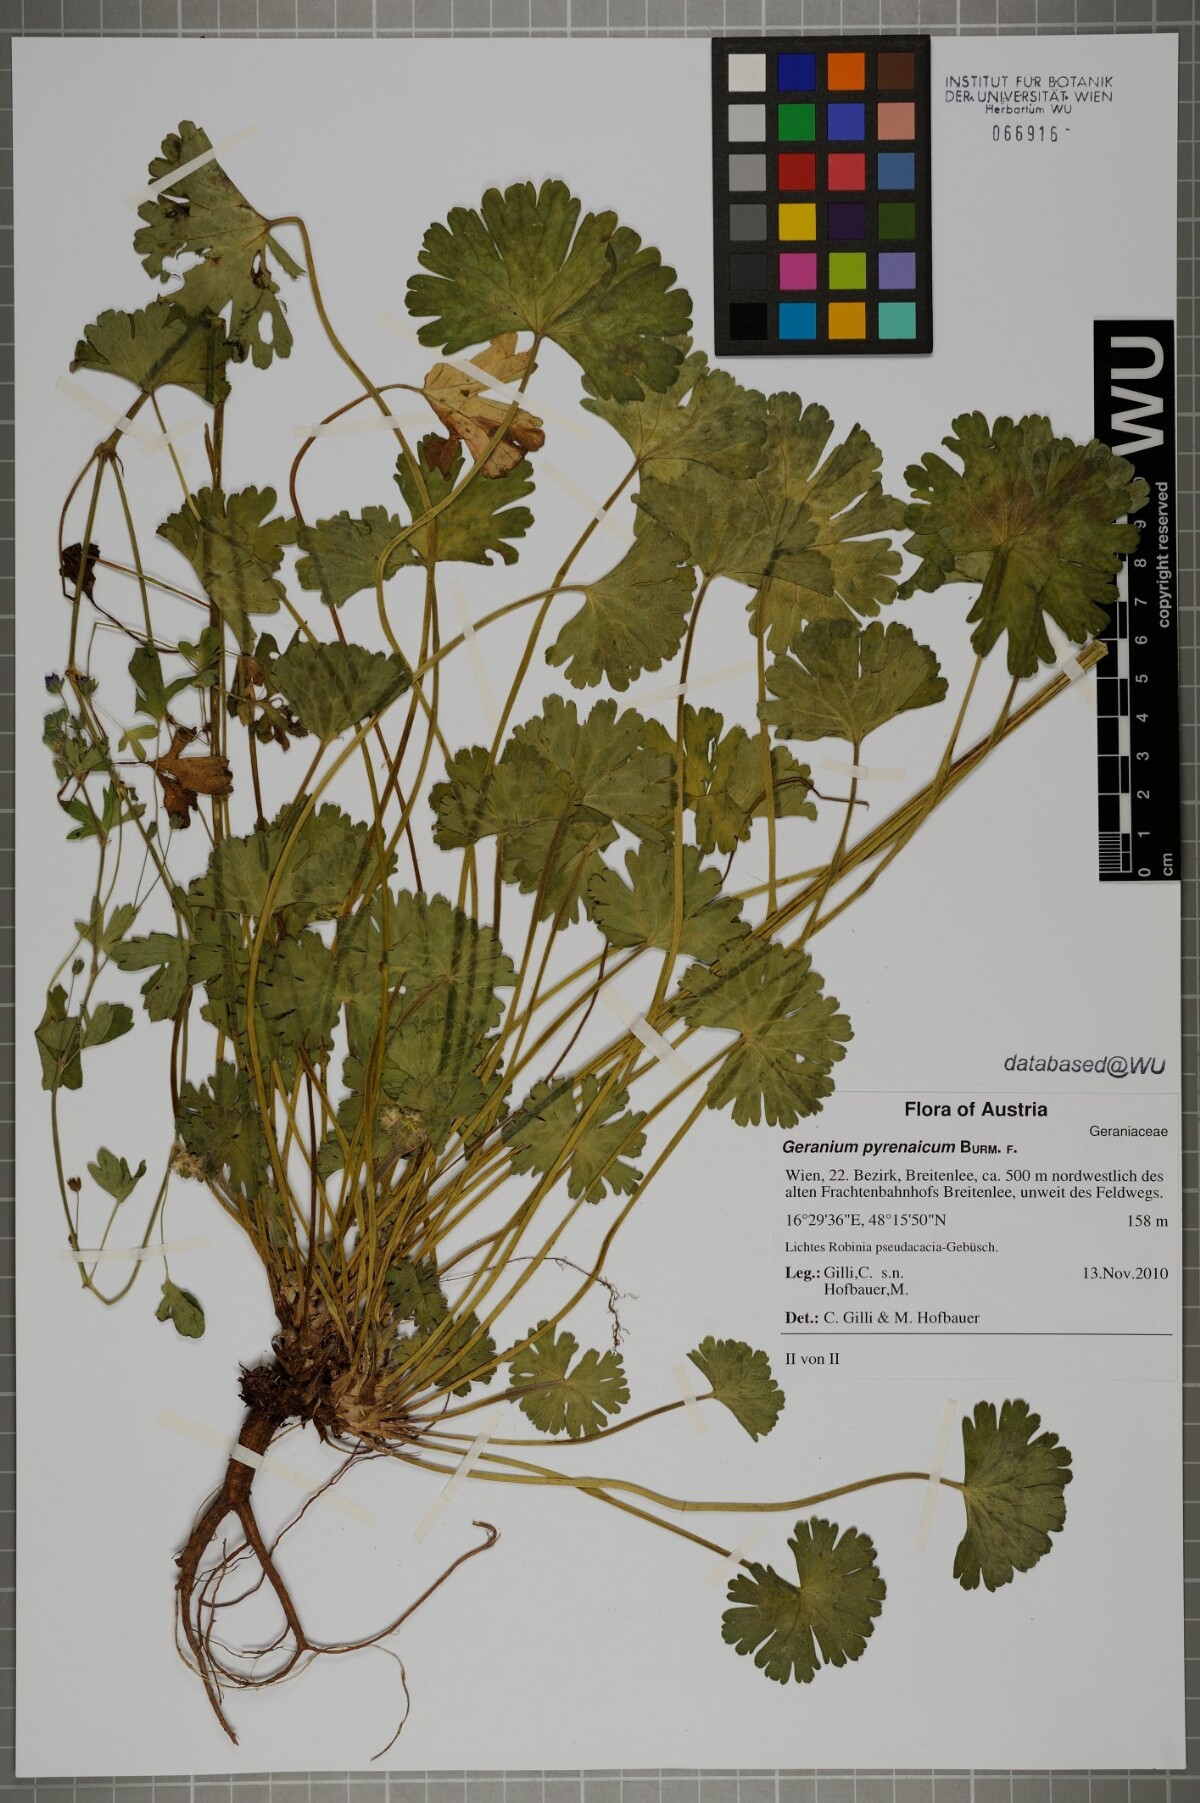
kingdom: Plantae
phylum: Tracheophyta
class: Magnoliopsida
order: Geraniales
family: Geraniaceae
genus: Geranium
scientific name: Geranium pyrenaicum
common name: Hedgerow crane's-bill
